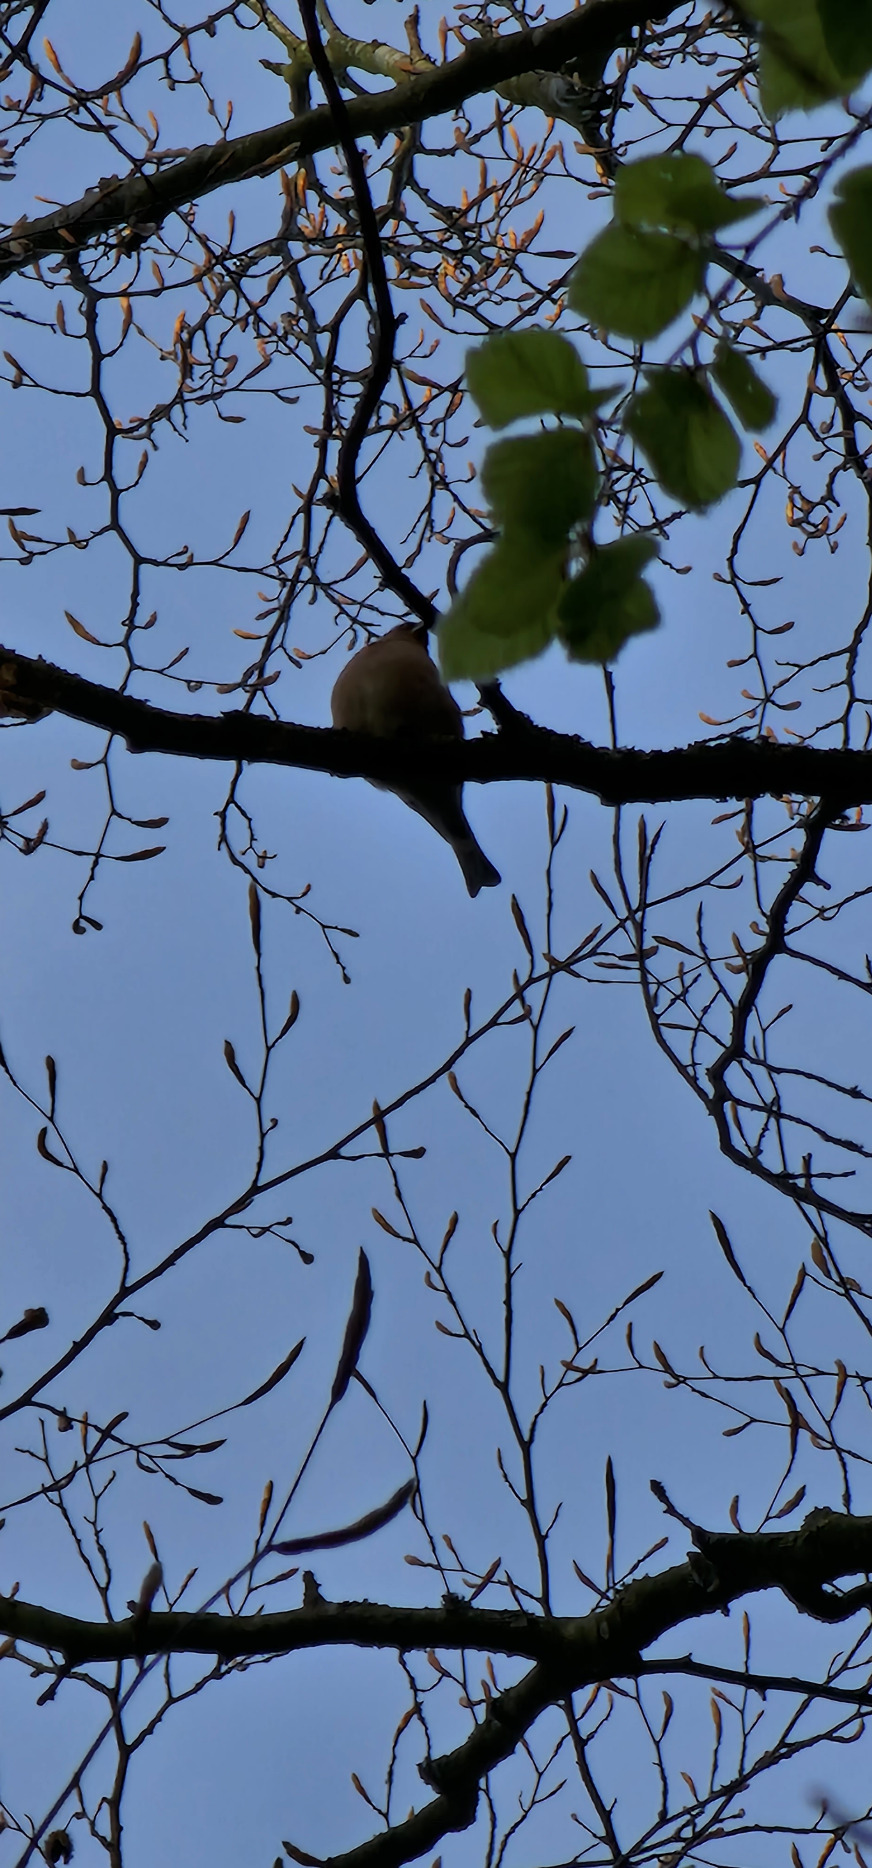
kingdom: Animalia
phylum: Chordata
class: Aves
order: Passeriformes
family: Fringillidae
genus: Fringilla
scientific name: Fringilla coelebs
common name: Bogfinke
